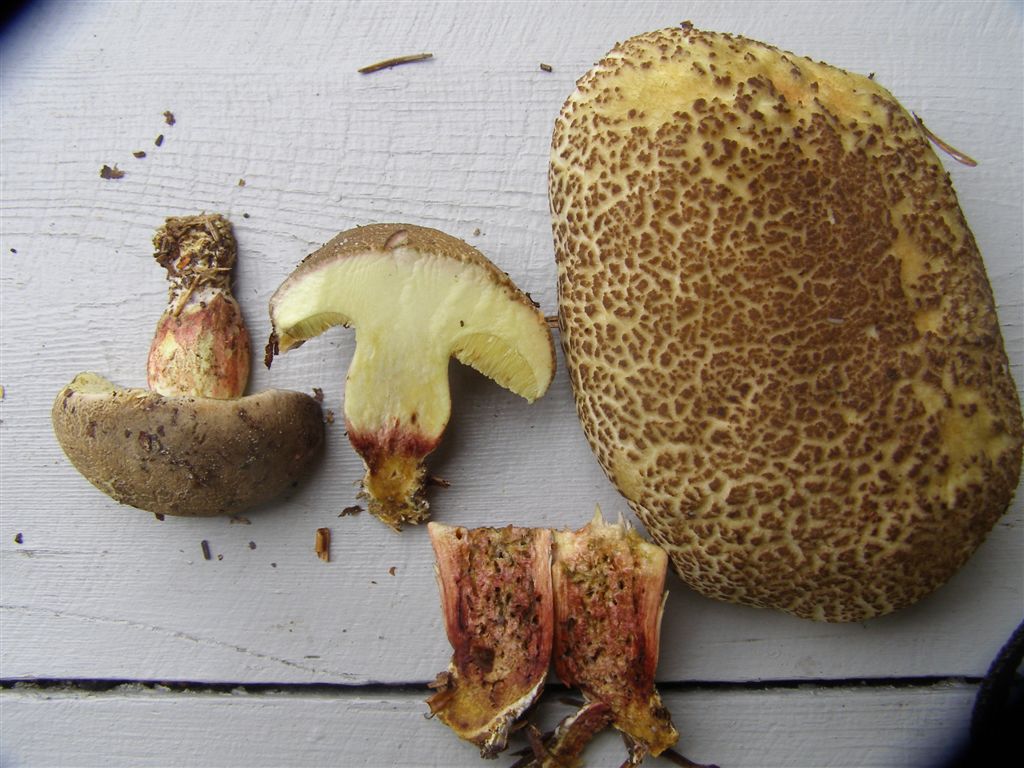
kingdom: Fungi
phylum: Basidiomycota
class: Agaricomycetes
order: Boletales
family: Boletaceae
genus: Xerocomellus
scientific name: Xerocomellus porosporus
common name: hvidsprukken rørhat
